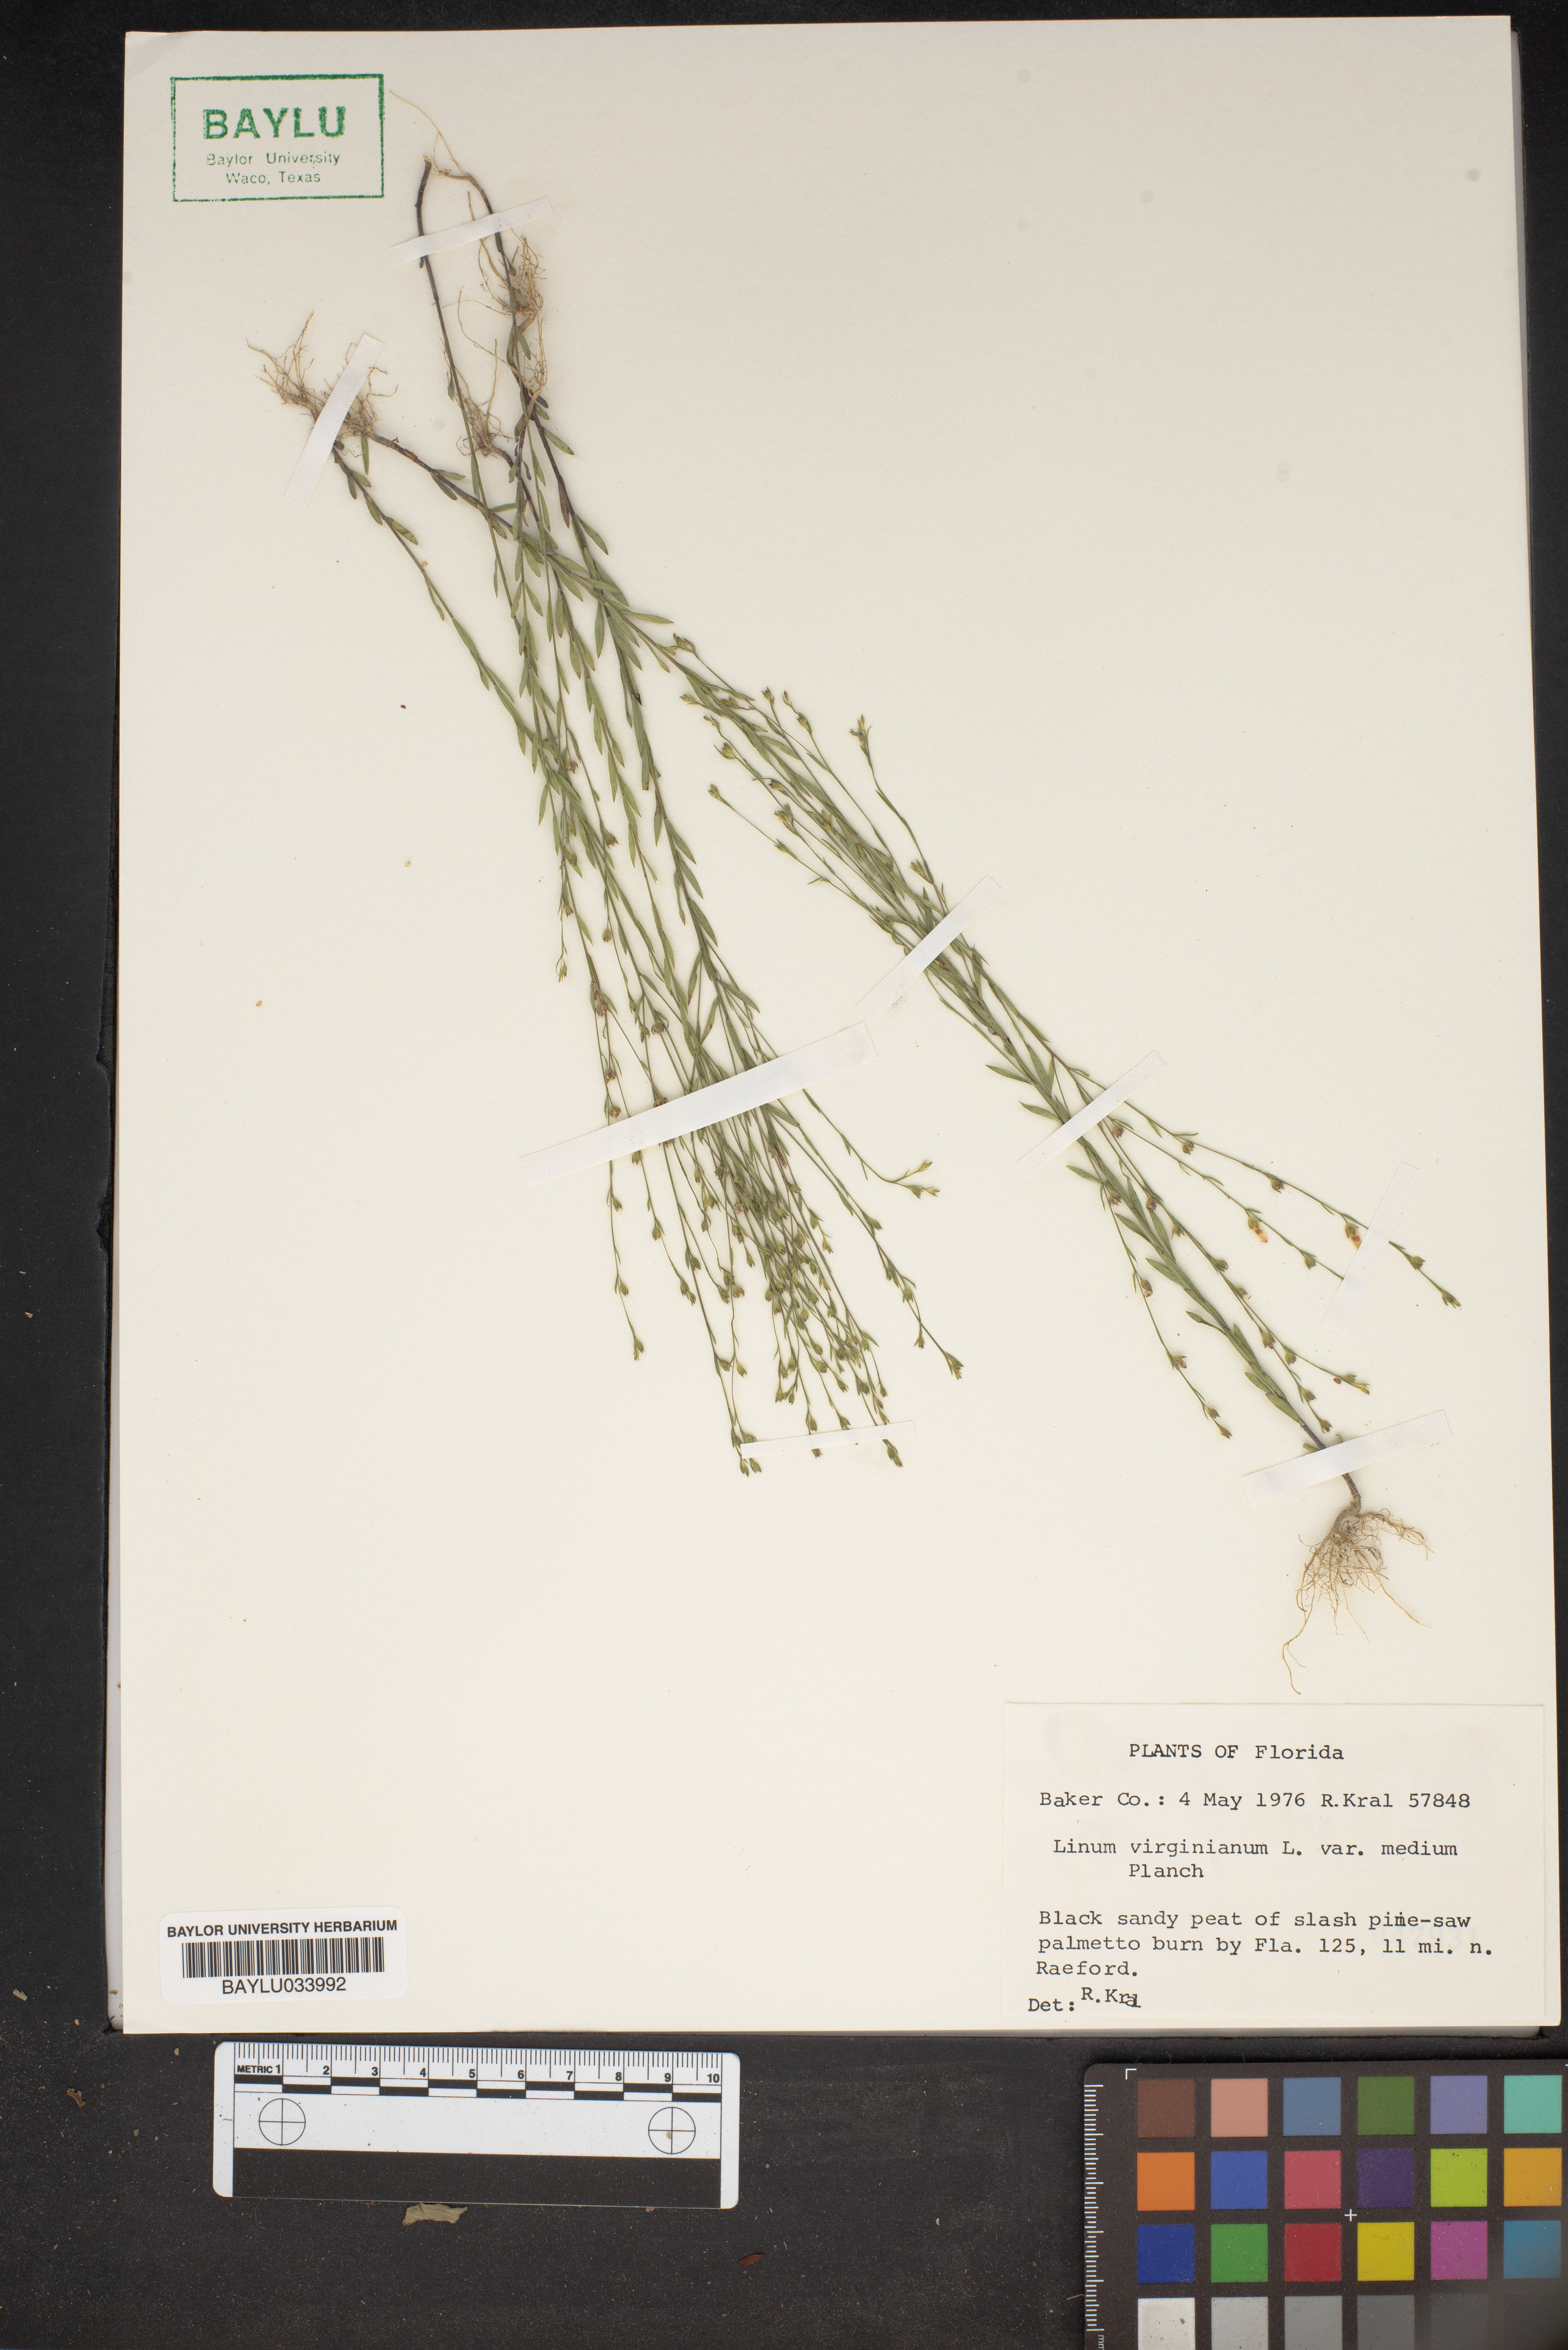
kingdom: Plantae
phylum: Tracheophyta
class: Magnoliopsida
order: Malpighiales
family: Linaceae
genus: Linum
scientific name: Linum medium
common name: Stiff yellow flax
